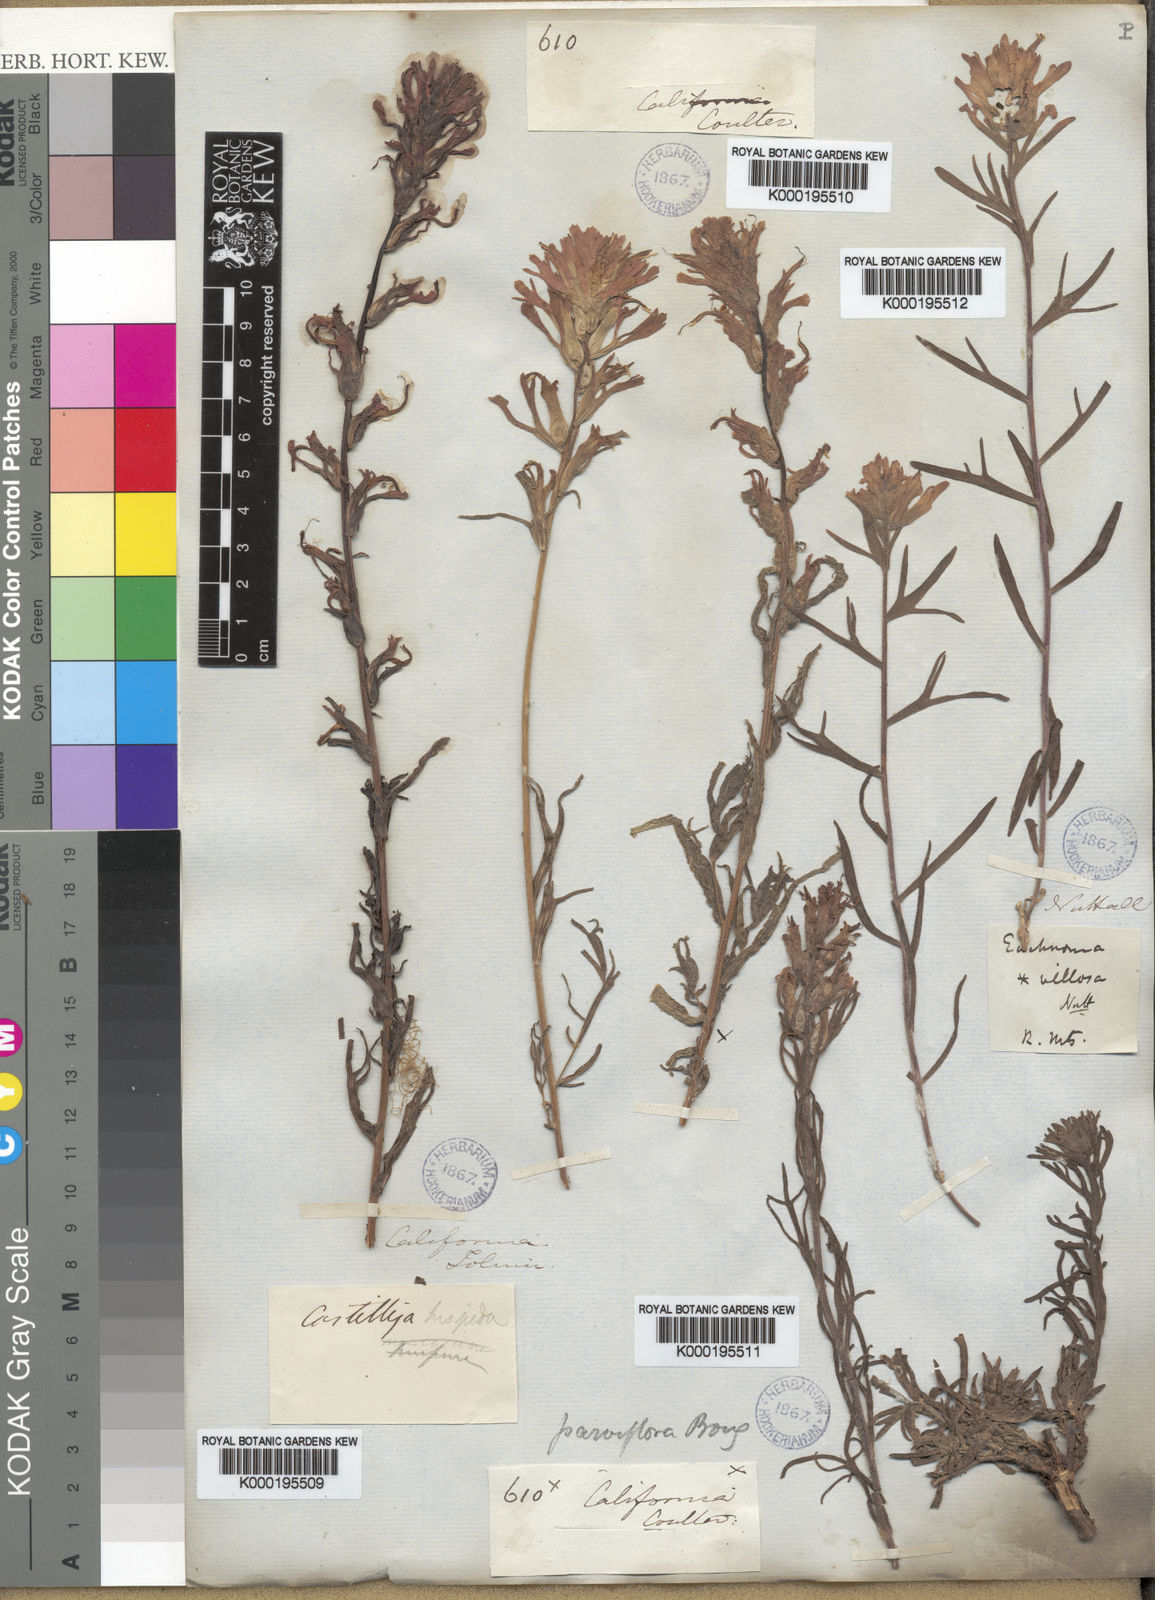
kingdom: Plantae
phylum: Tracheophyta
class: Magnoliopsida
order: Lamiales
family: Orobanchaceae
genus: Castilleja
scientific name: Castilleja angustifolia
